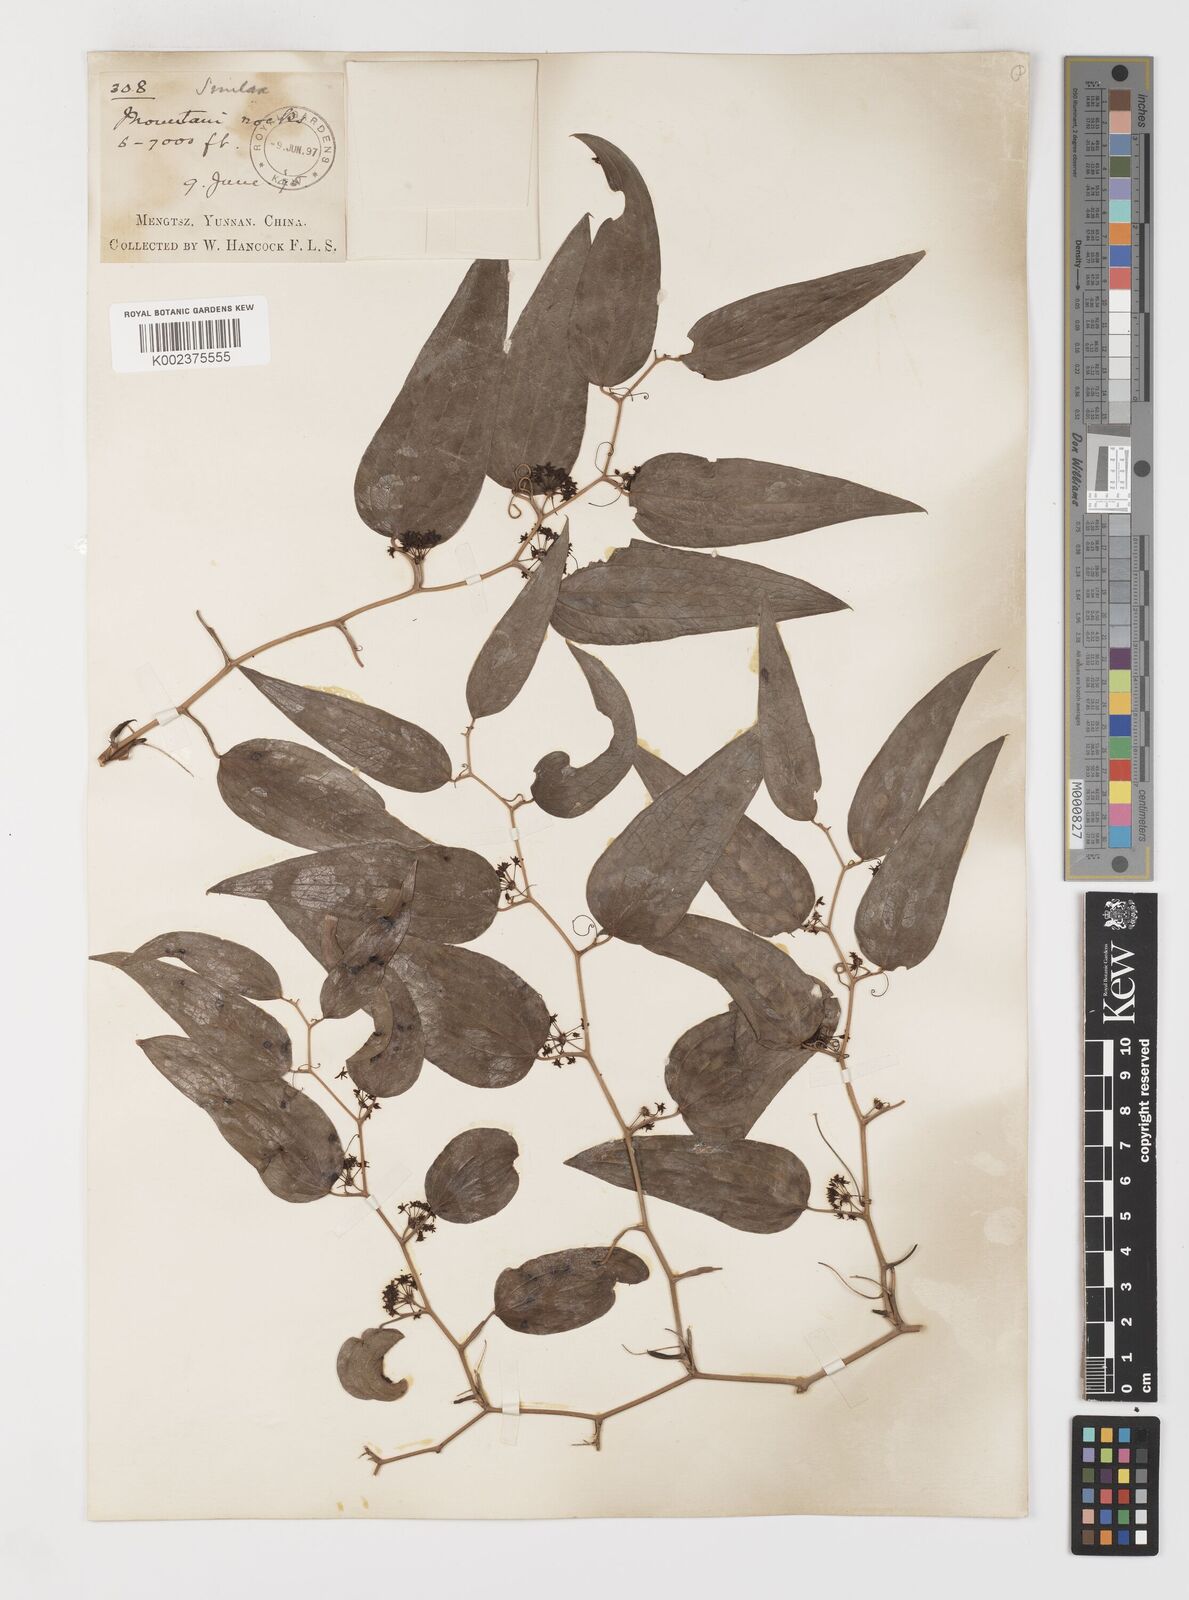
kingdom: Plantae
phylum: Tracheophyta
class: Liliopsida
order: Liliales
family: Smilacaceae
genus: Smilax
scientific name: Smilax lanceifolia
